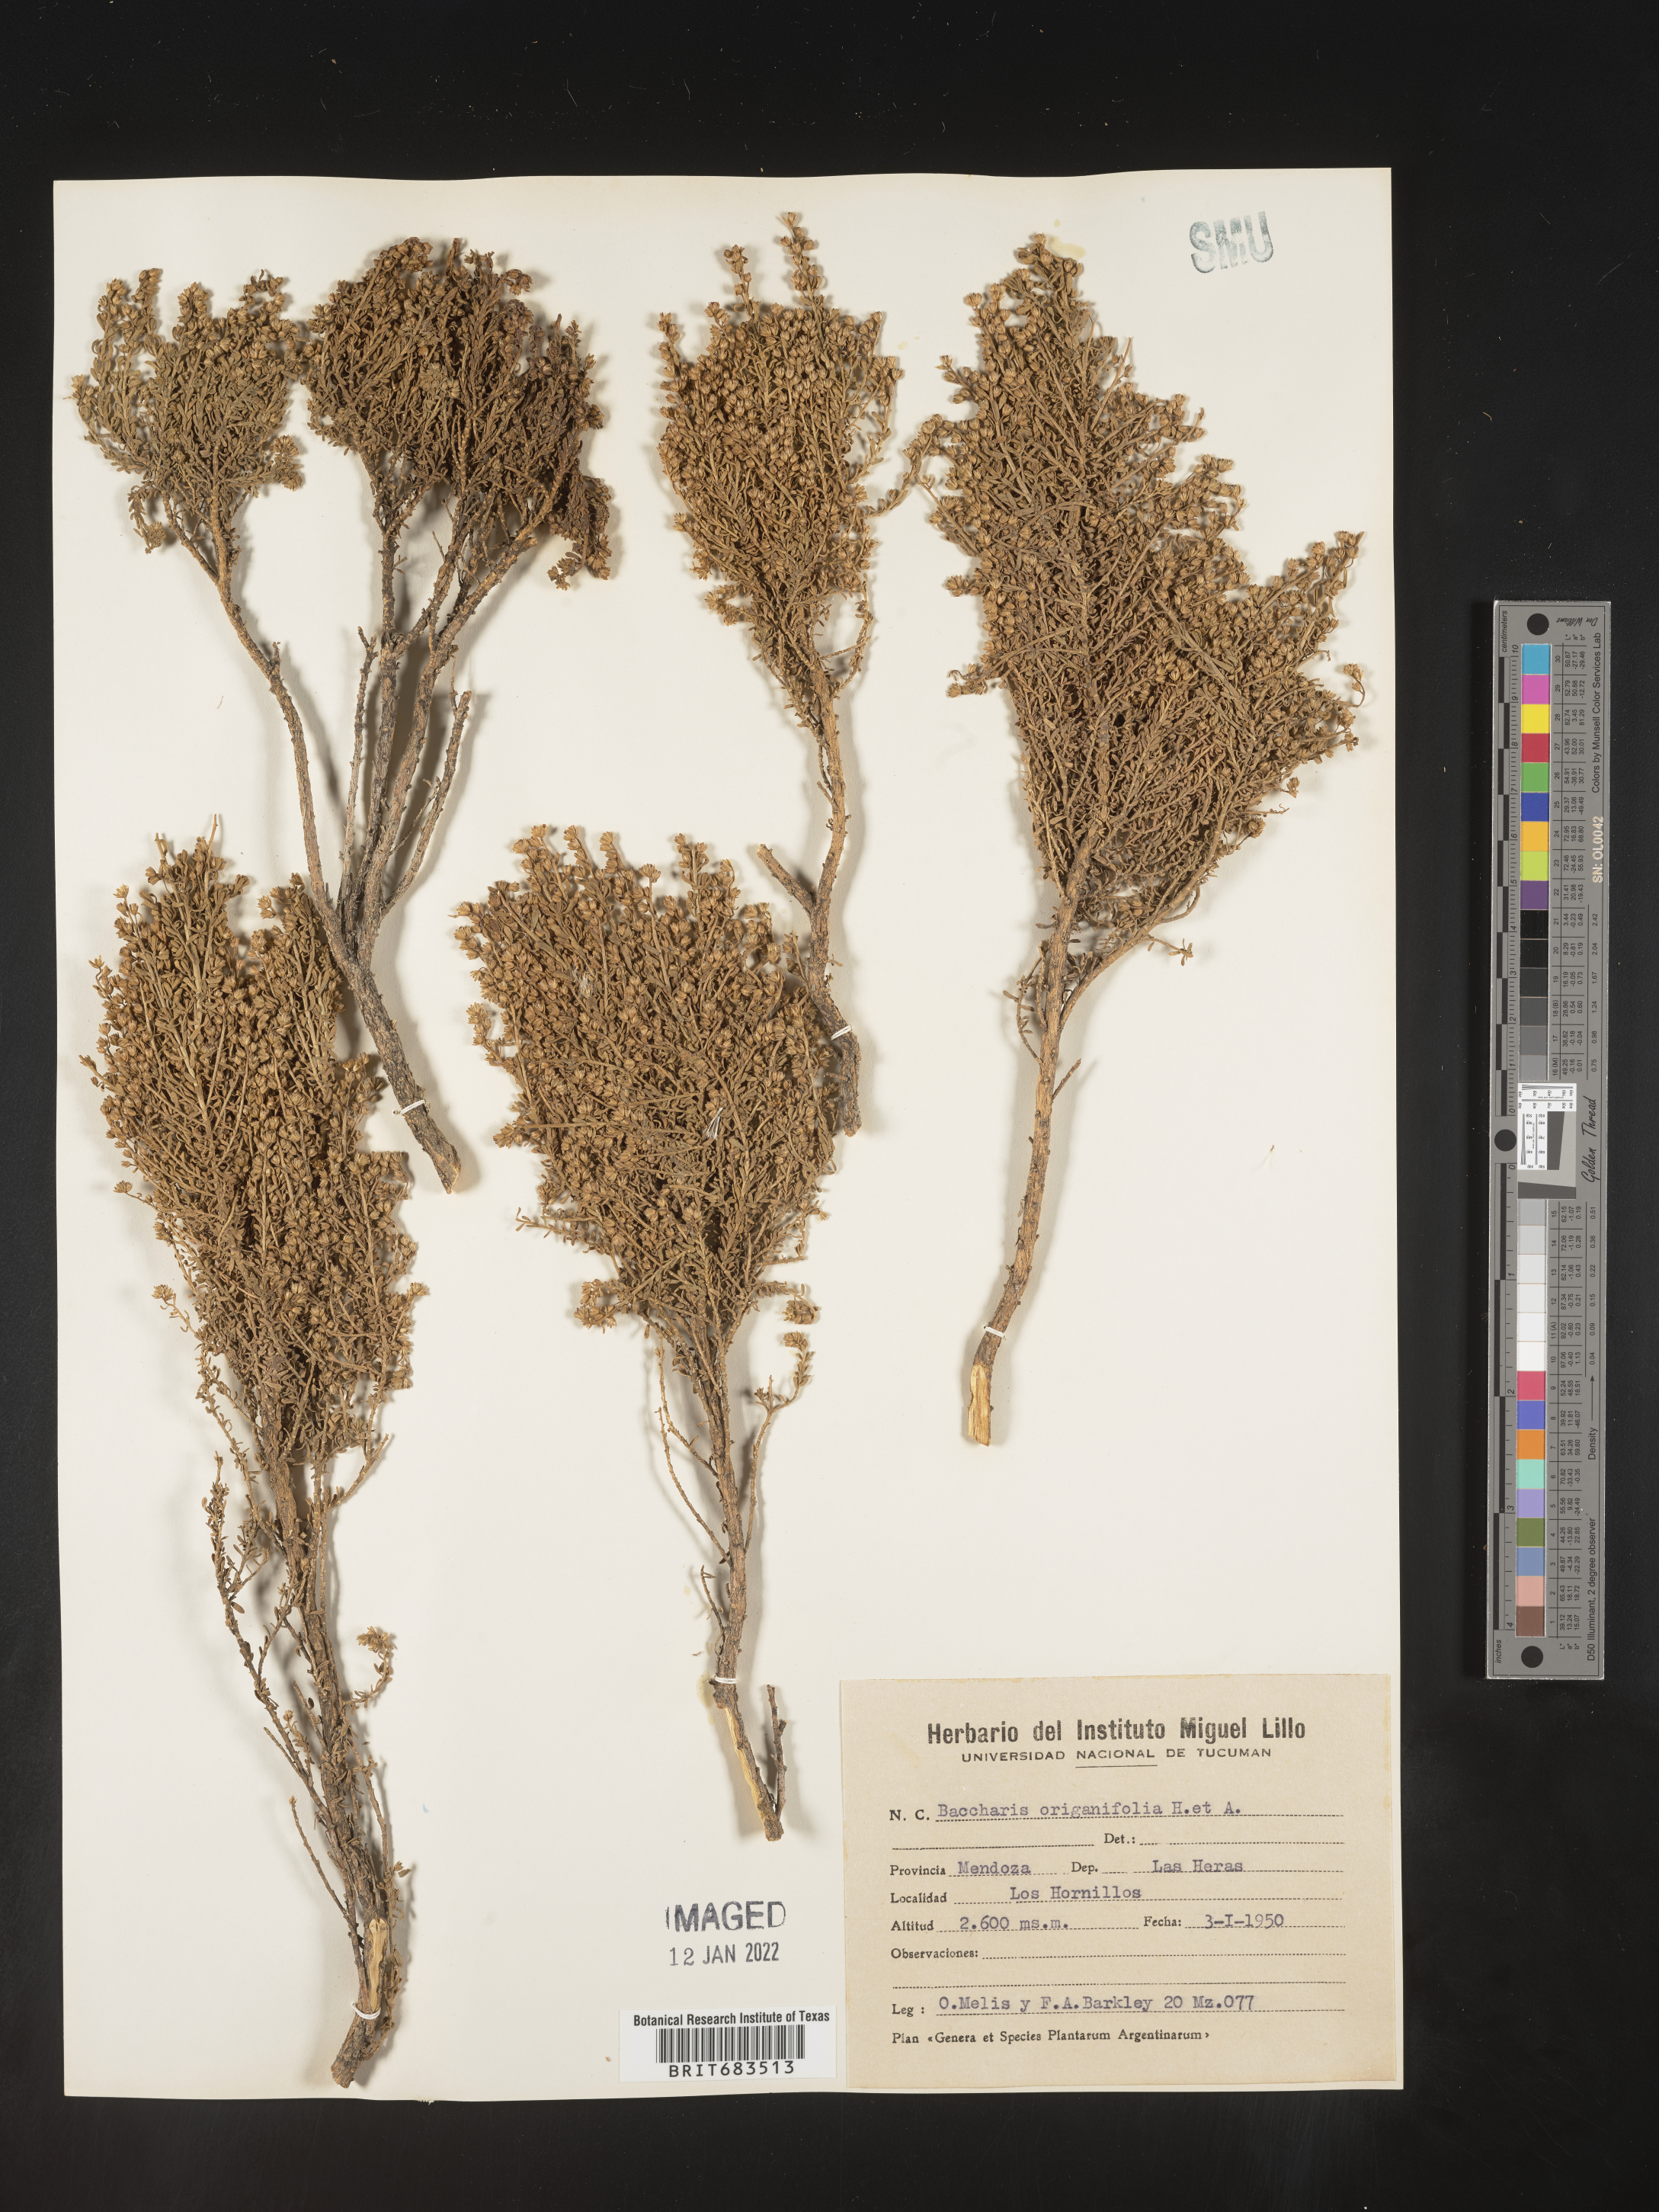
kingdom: Plantae
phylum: Tracheophyta
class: Magnoliopsida
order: Asterales
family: Asteraceae
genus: Baccharis
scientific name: Baccharis
